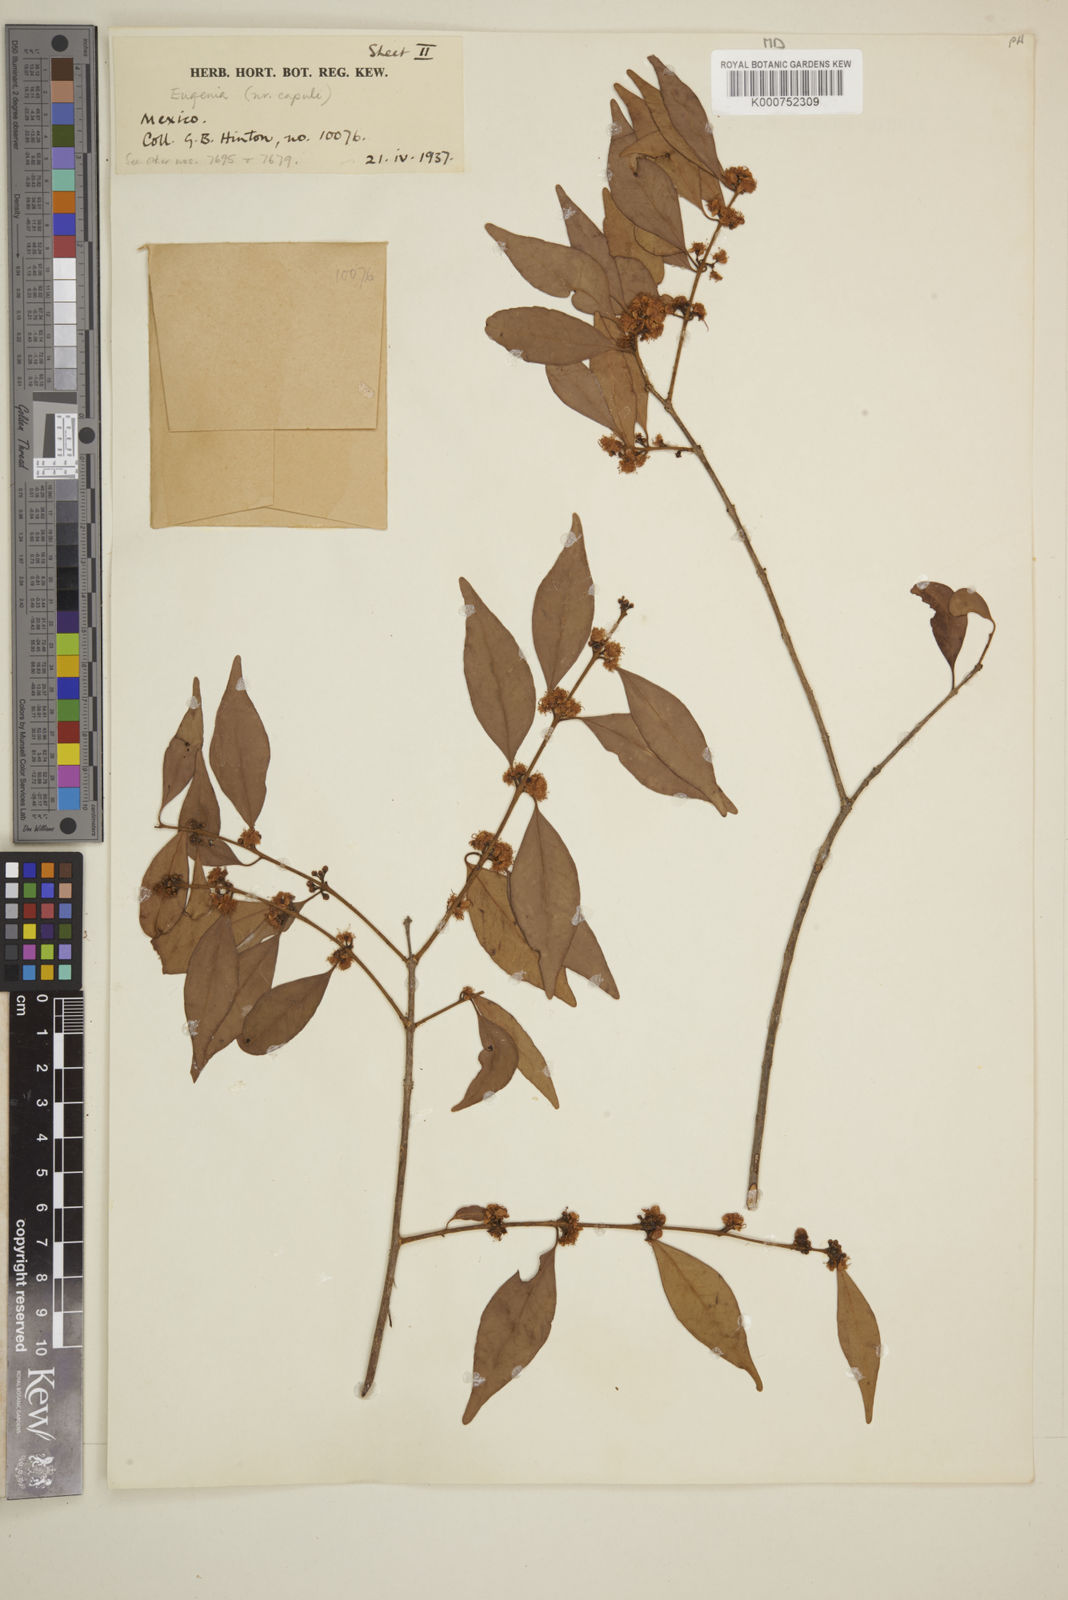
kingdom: Plantae
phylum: Tracheophyta
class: Magnoliopsida
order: Myrtales
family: Myrtaceae
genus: Eugenia
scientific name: Eugenia capuli
